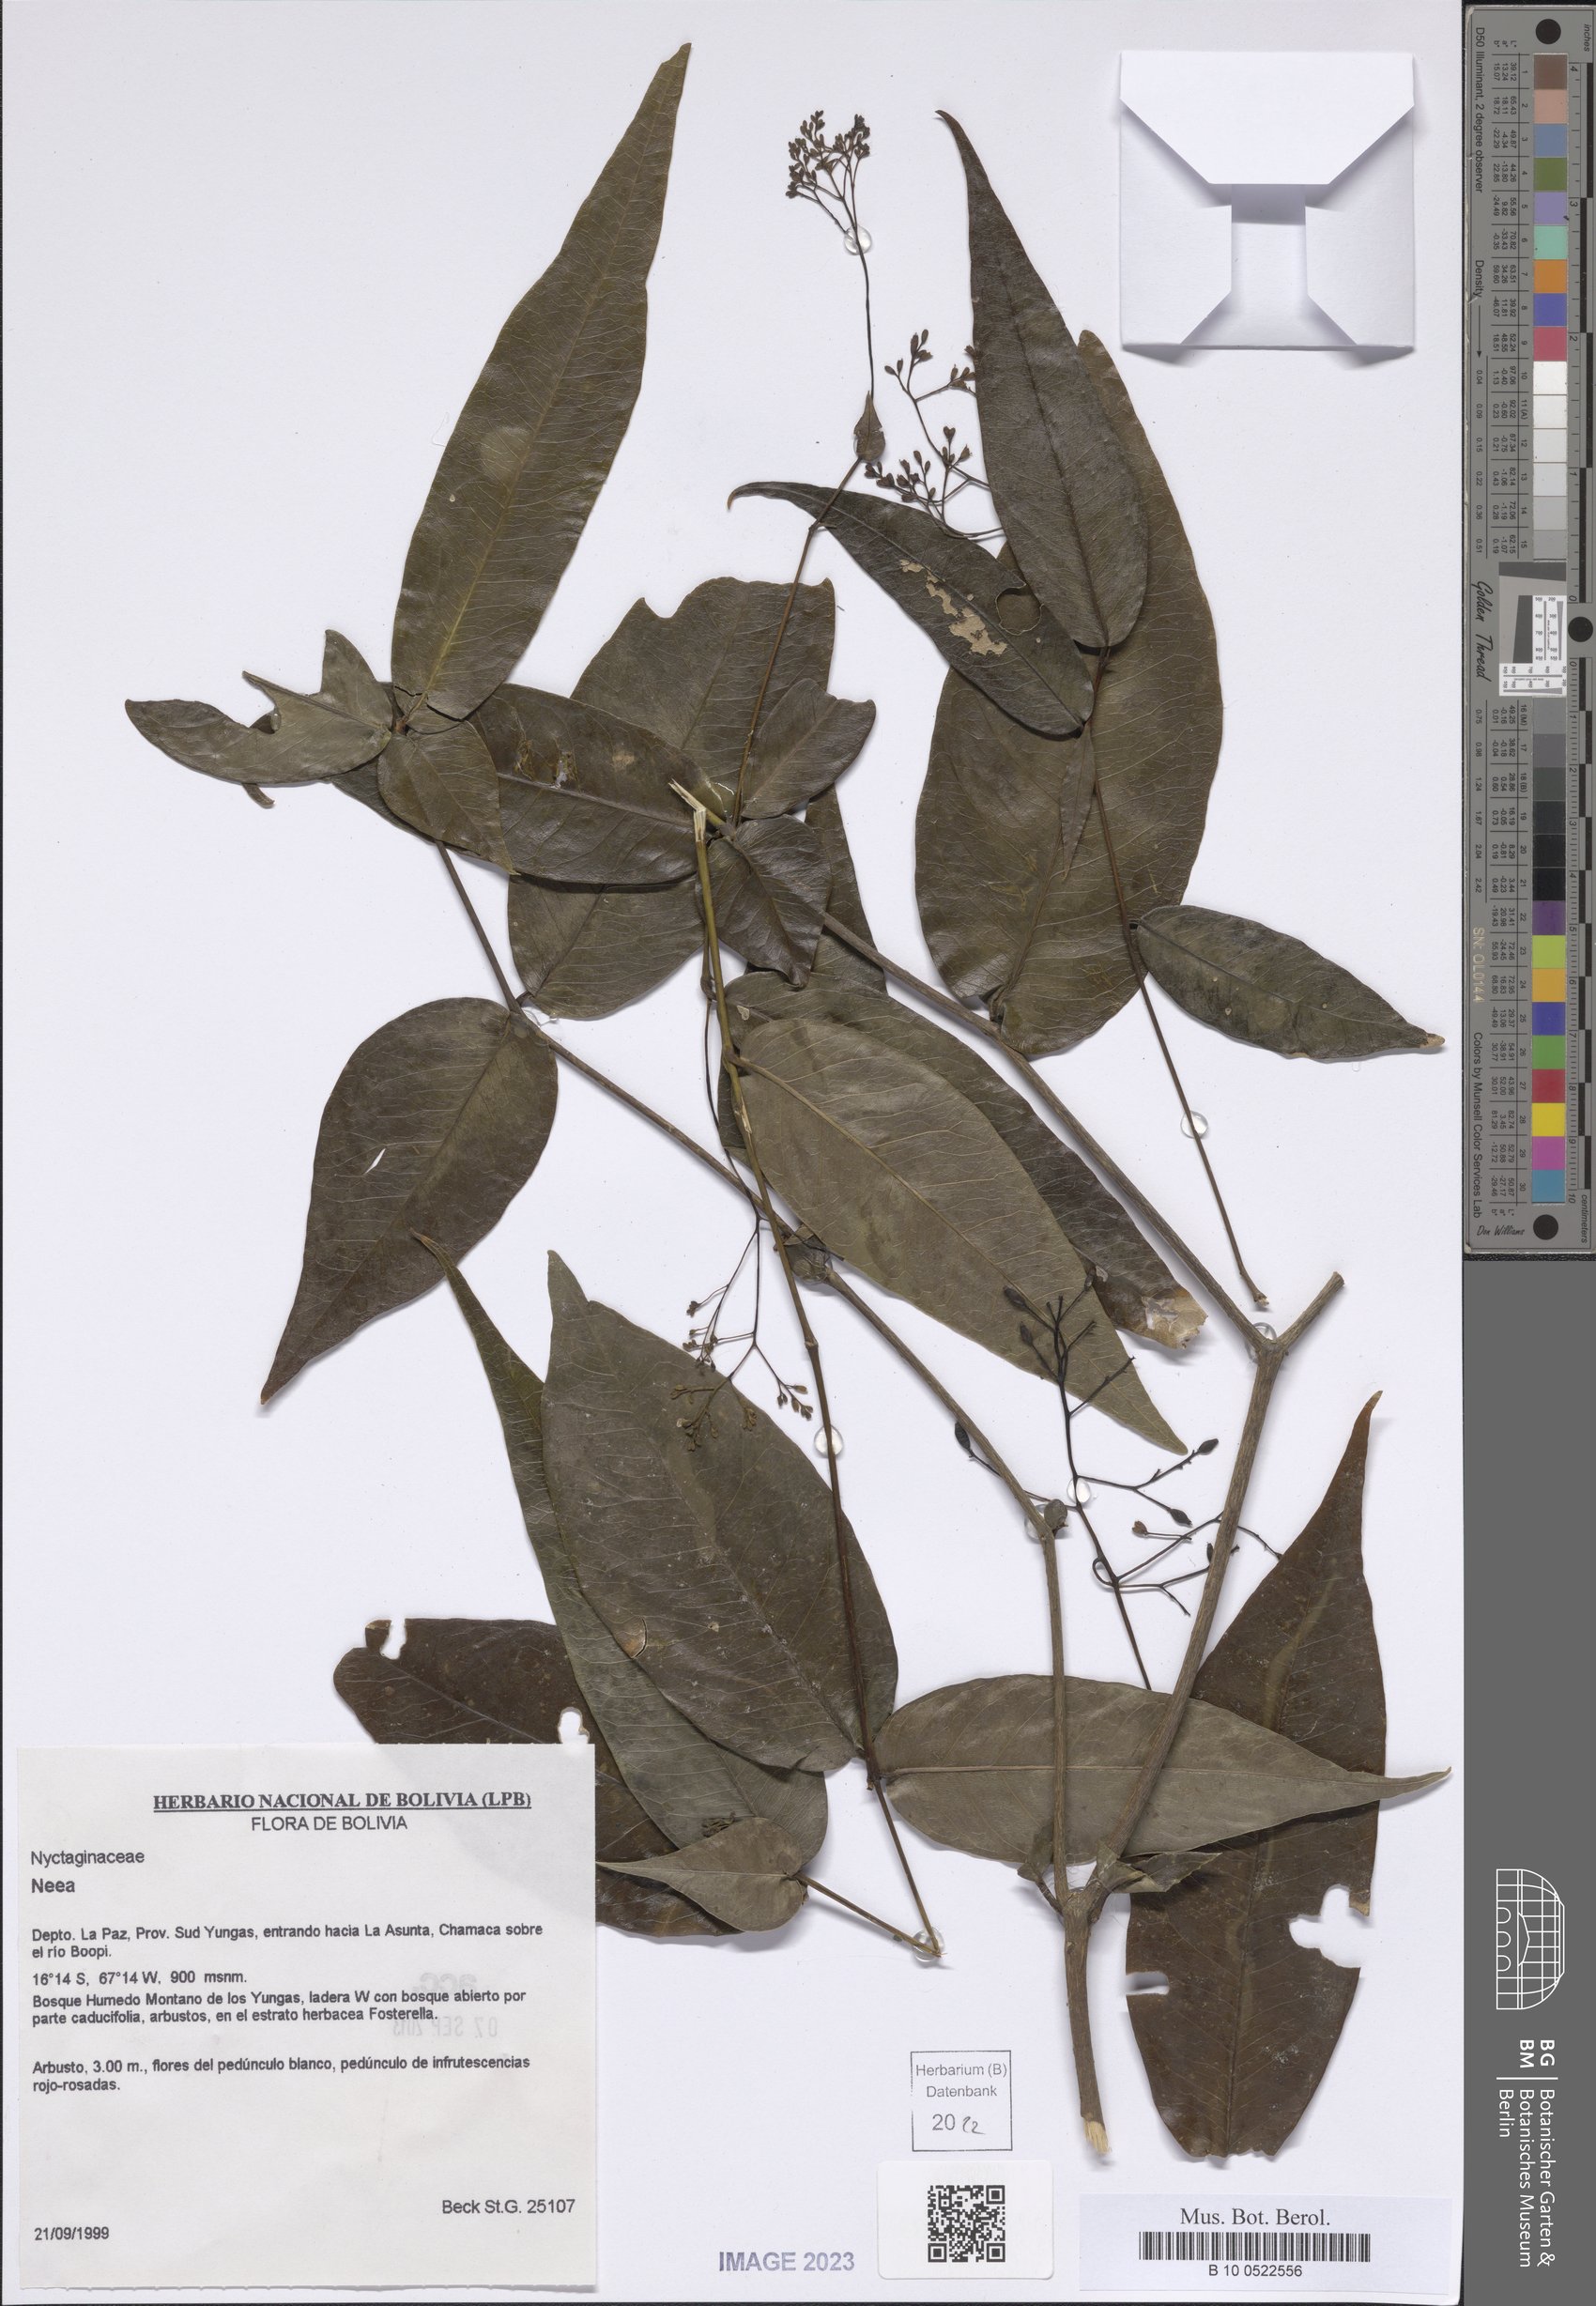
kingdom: Plantae
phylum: Tracheophyta
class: Magnoliopsida
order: Caryophyllales
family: Nyctaginaceae
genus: Neea
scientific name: Neea
